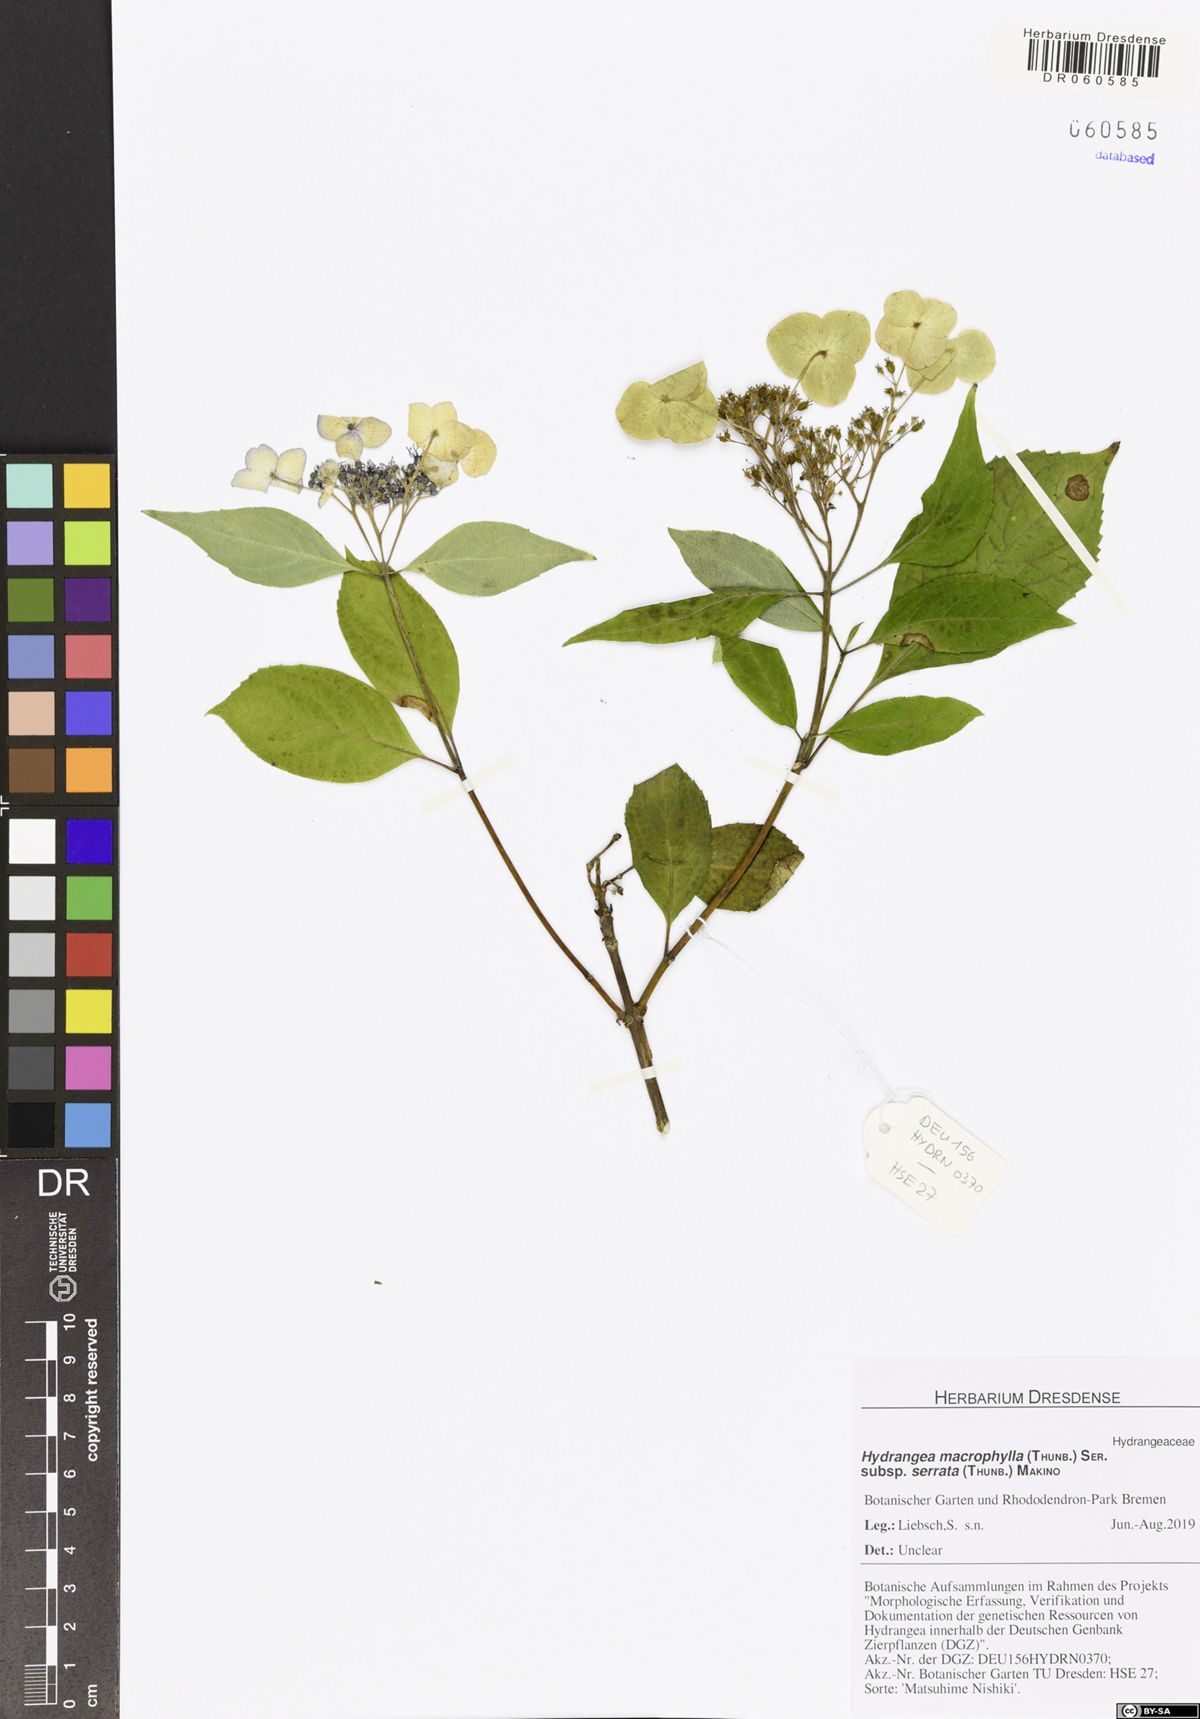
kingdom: Plantae
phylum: Tracheophyta
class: Magnoliopsida
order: Cornales
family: Hydrangeaceae
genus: Hydrangea
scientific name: Hydrangea serrata
